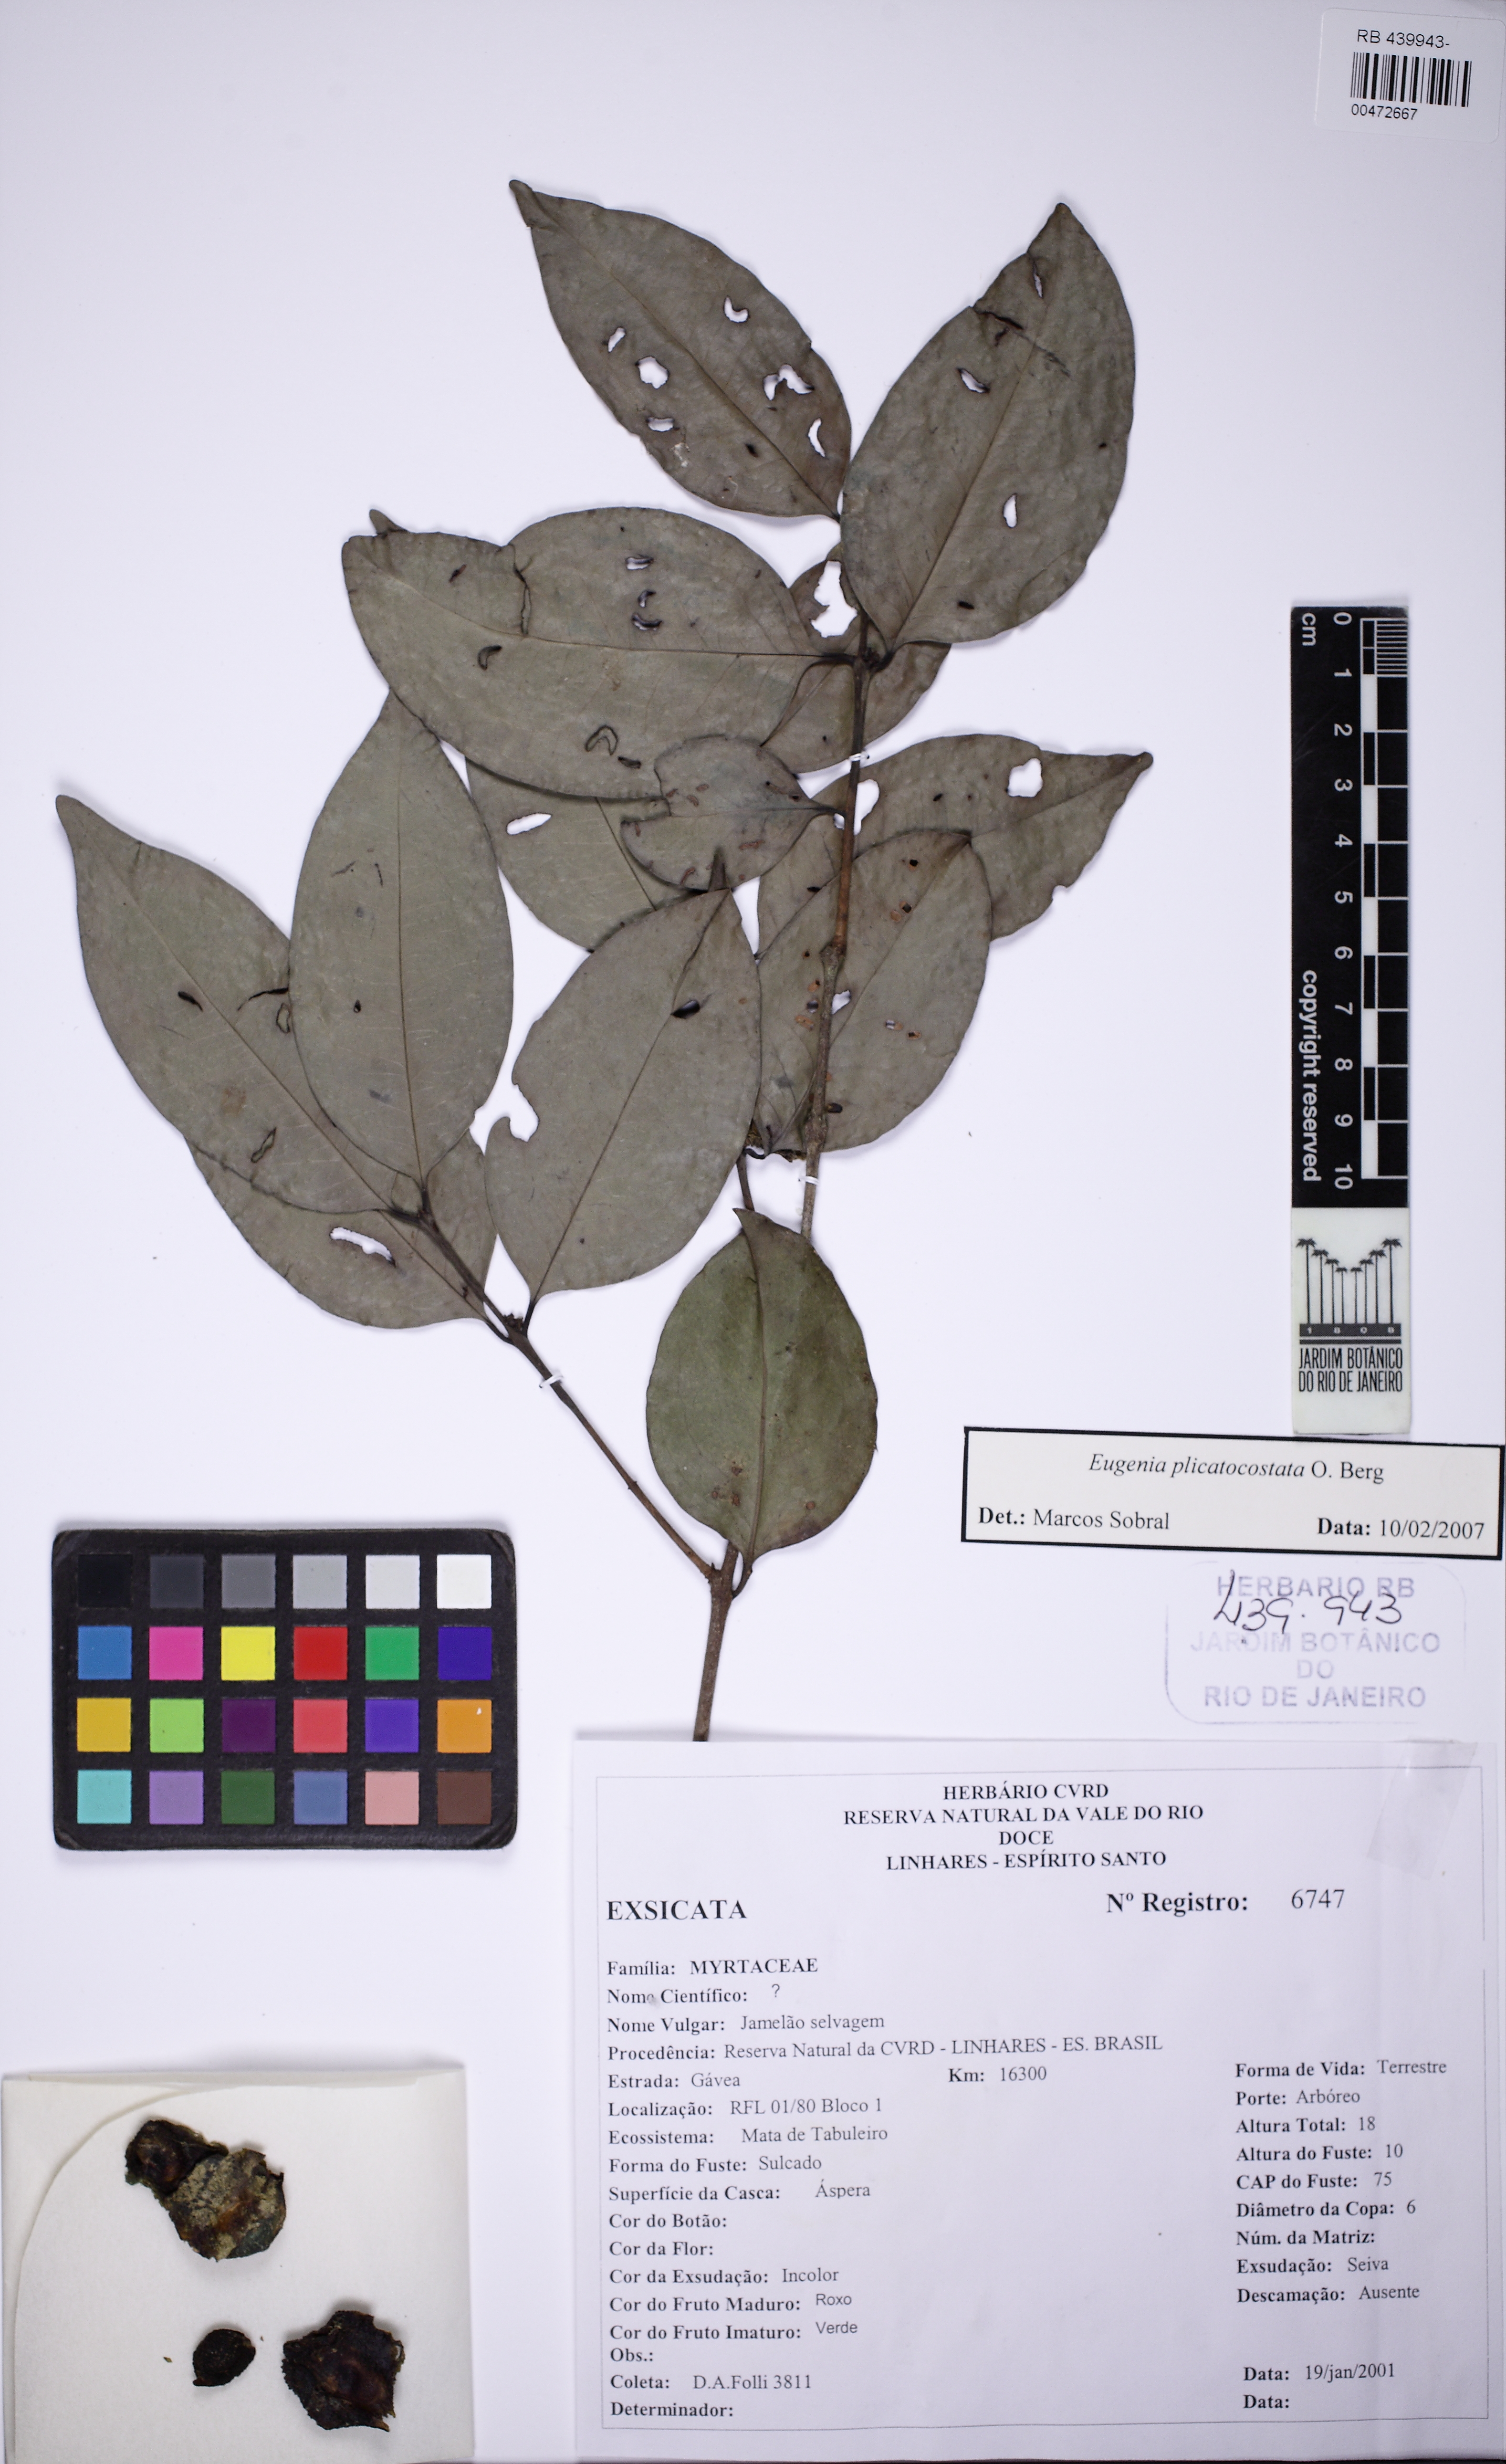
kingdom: Plantae
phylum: Tracheophyta
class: Magnoliopsida
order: Myrtales
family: Myrtaceae
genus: Eugenia
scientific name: Eugenia plicatocostata
